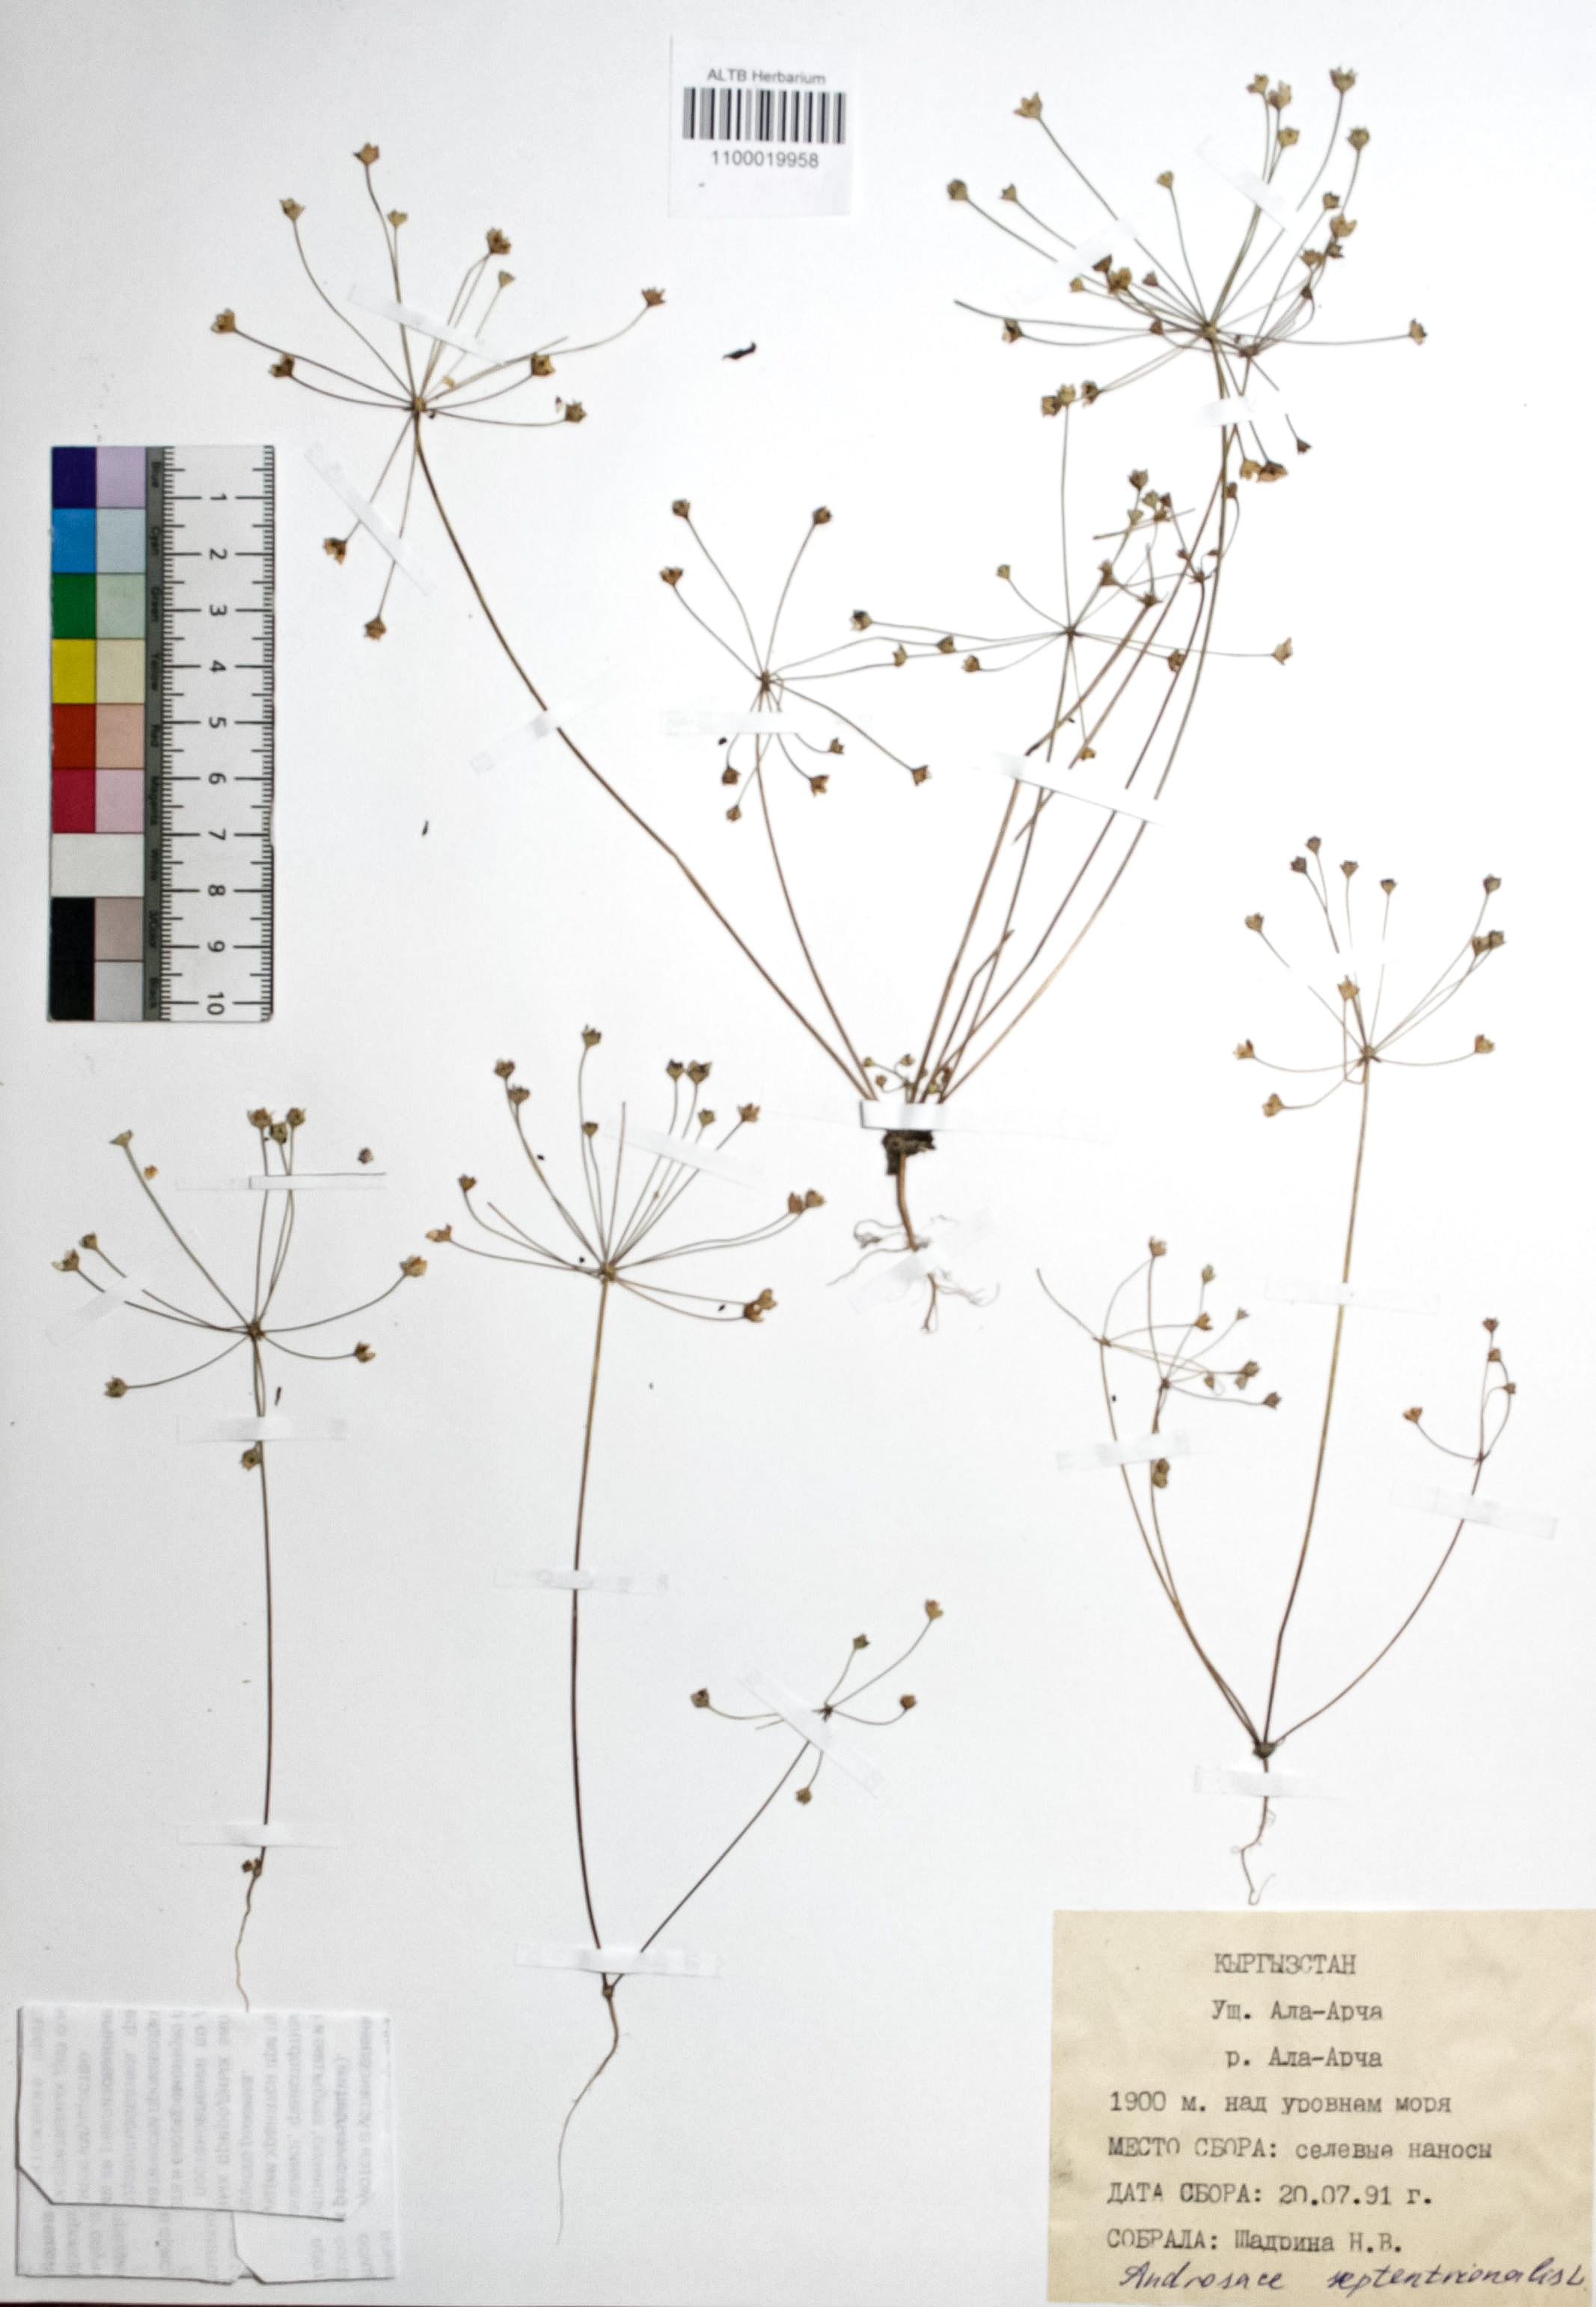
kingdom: Plantae
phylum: Tracheophyta
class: Magnoliopsida
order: Ericales
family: Primulaceae
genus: Androsace
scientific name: Androsace septentrionalis
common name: Hairy northern fairy-candelabra
